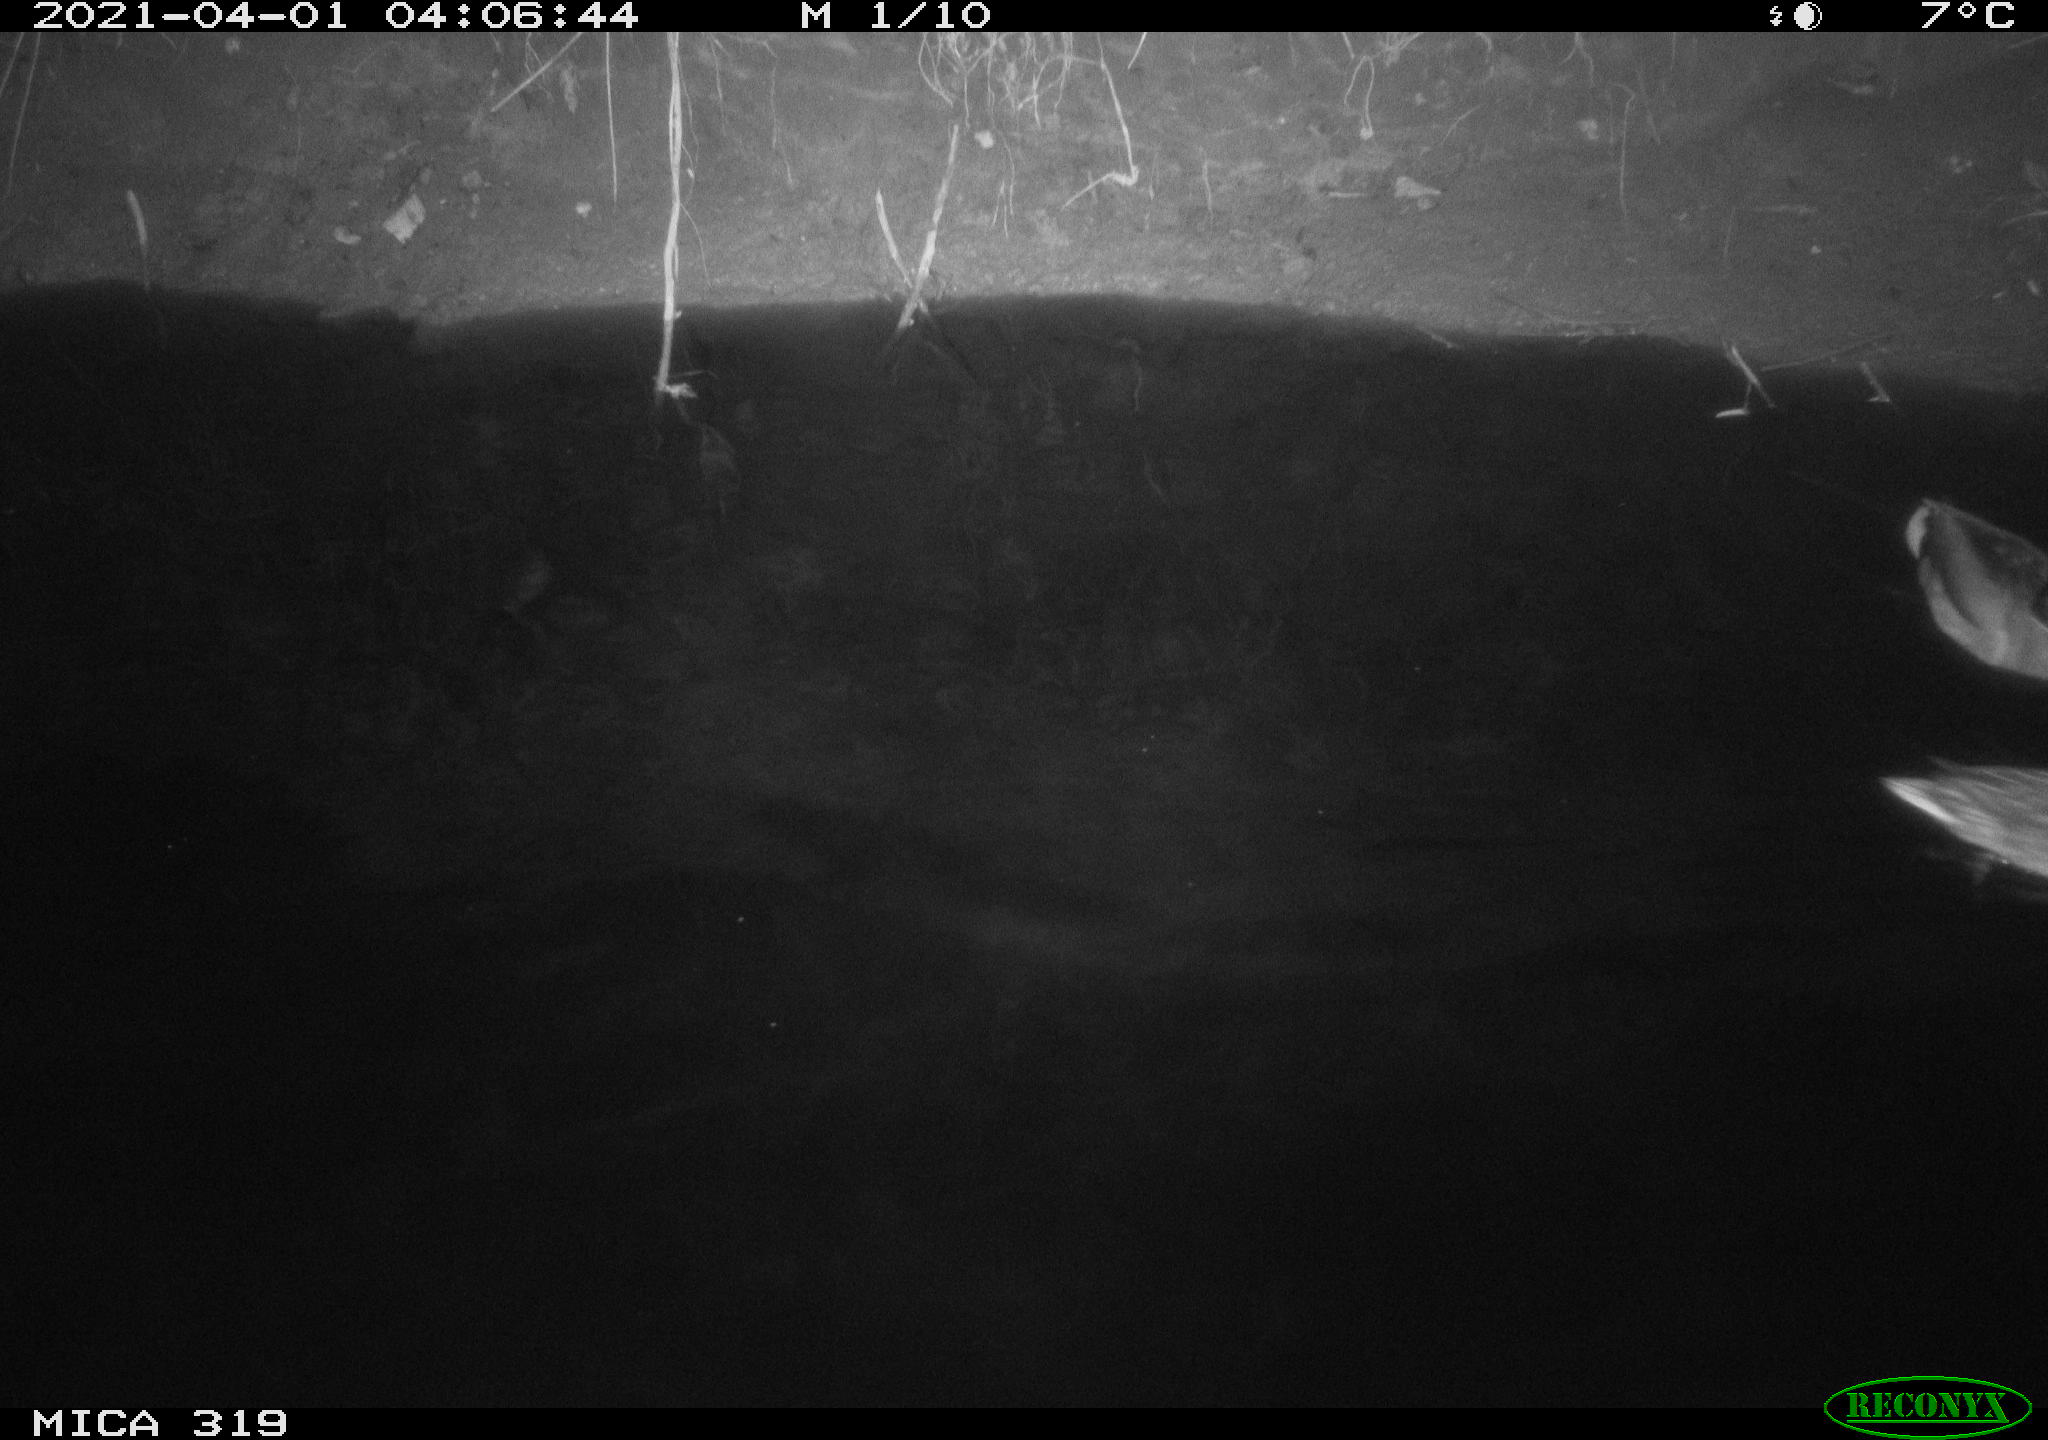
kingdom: Animalia
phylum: Chordata
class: Aves
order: Anseriformes
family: Anatidae
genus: Anas
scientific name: Anas platyrhynchos
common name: Mallard
